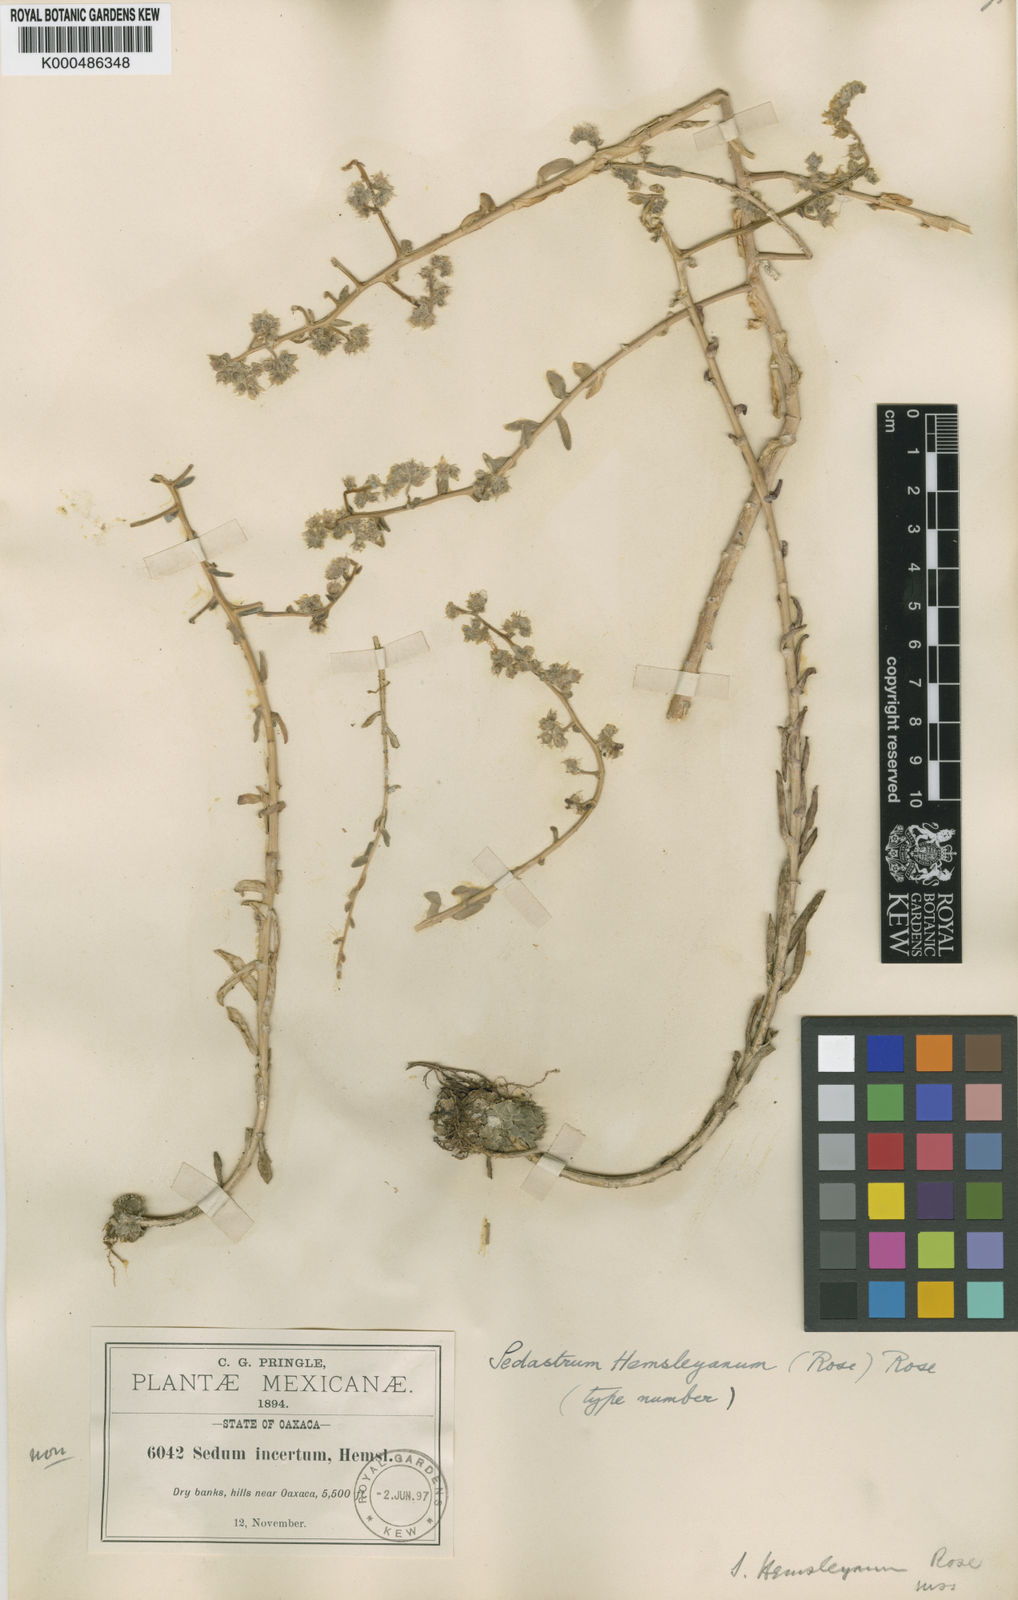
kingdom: Plantae
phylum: Tracheophyta
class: Magnoliopsida
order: Saxifragales
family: Crassulaceae
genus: Sedum
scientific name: Sedum hemsleyanum
